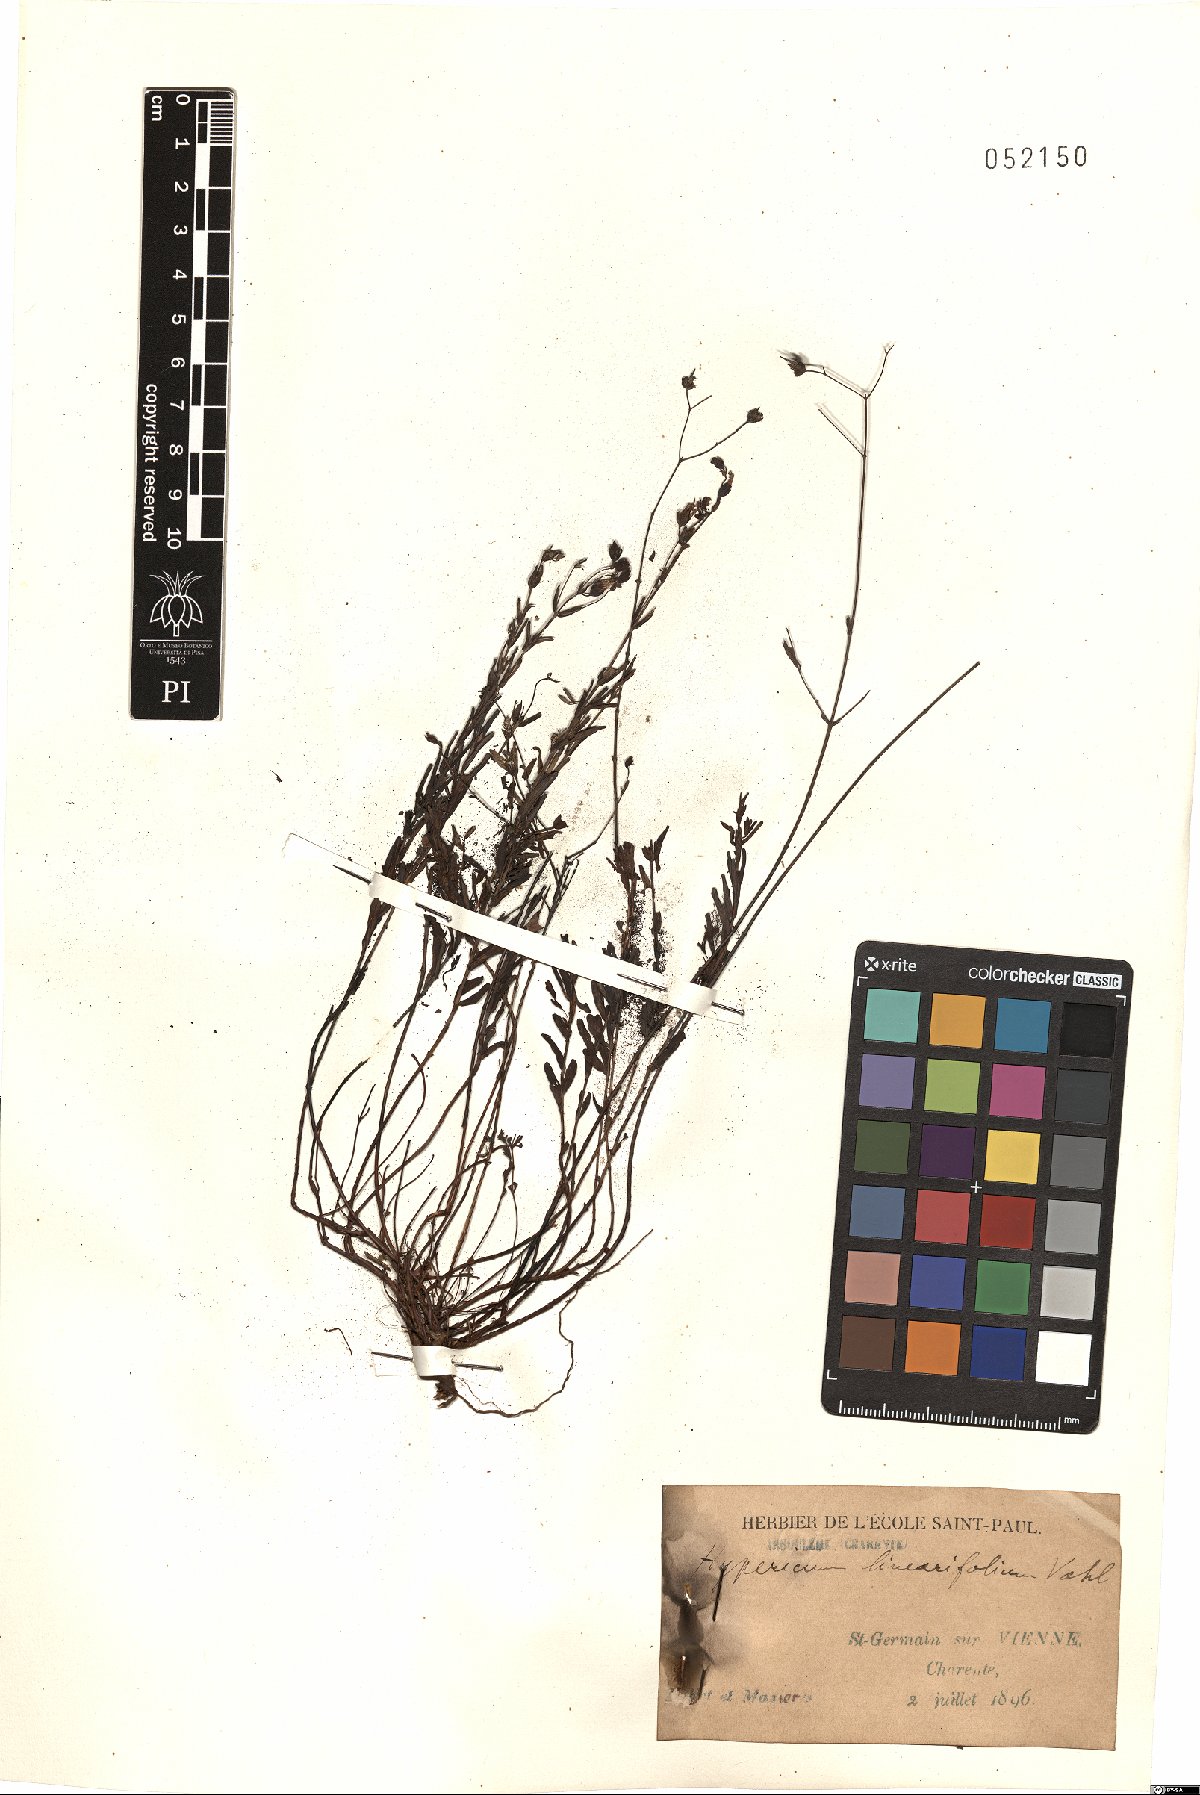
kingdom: Plantae
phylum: Tracheophyta
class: Magnoliopsida
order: Malpighiales
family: Hypericaceae
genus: Hypericum
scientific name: Hypericum linariifolium
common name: Toadflax-leaved st. john's-wort
